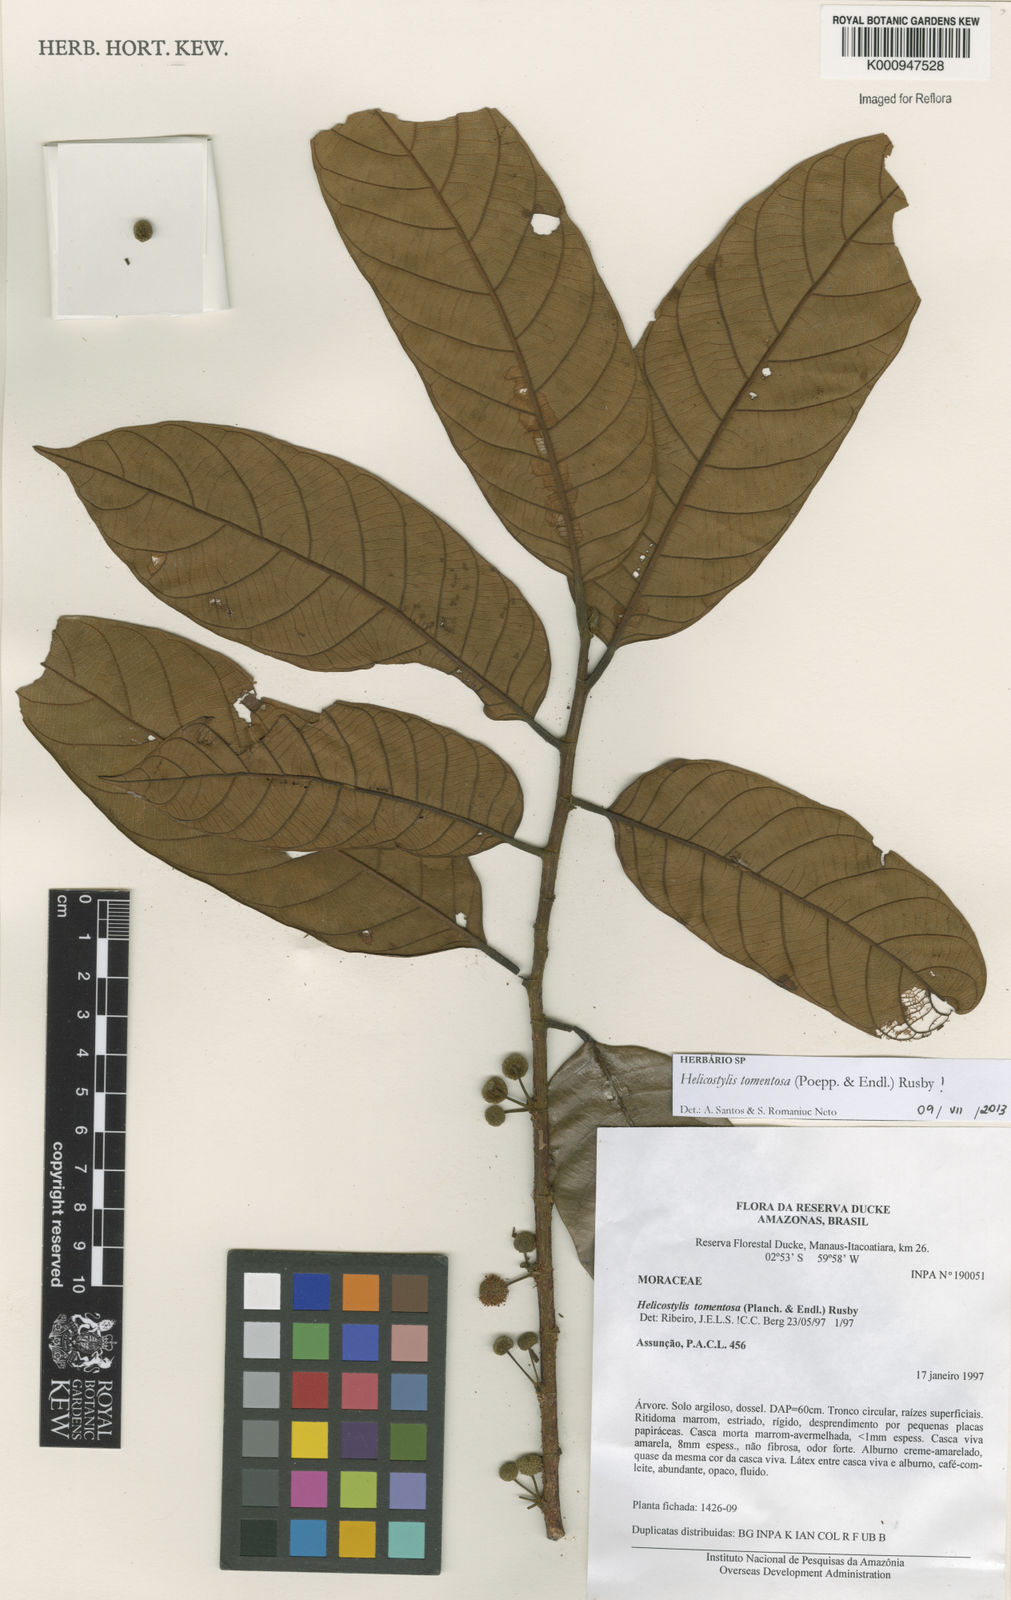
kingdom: Plantae
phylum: Tracheophyta
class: Magnoliopsida
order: Rosales
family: Moraceae
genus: Helicostylis
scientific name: Helicostylis
